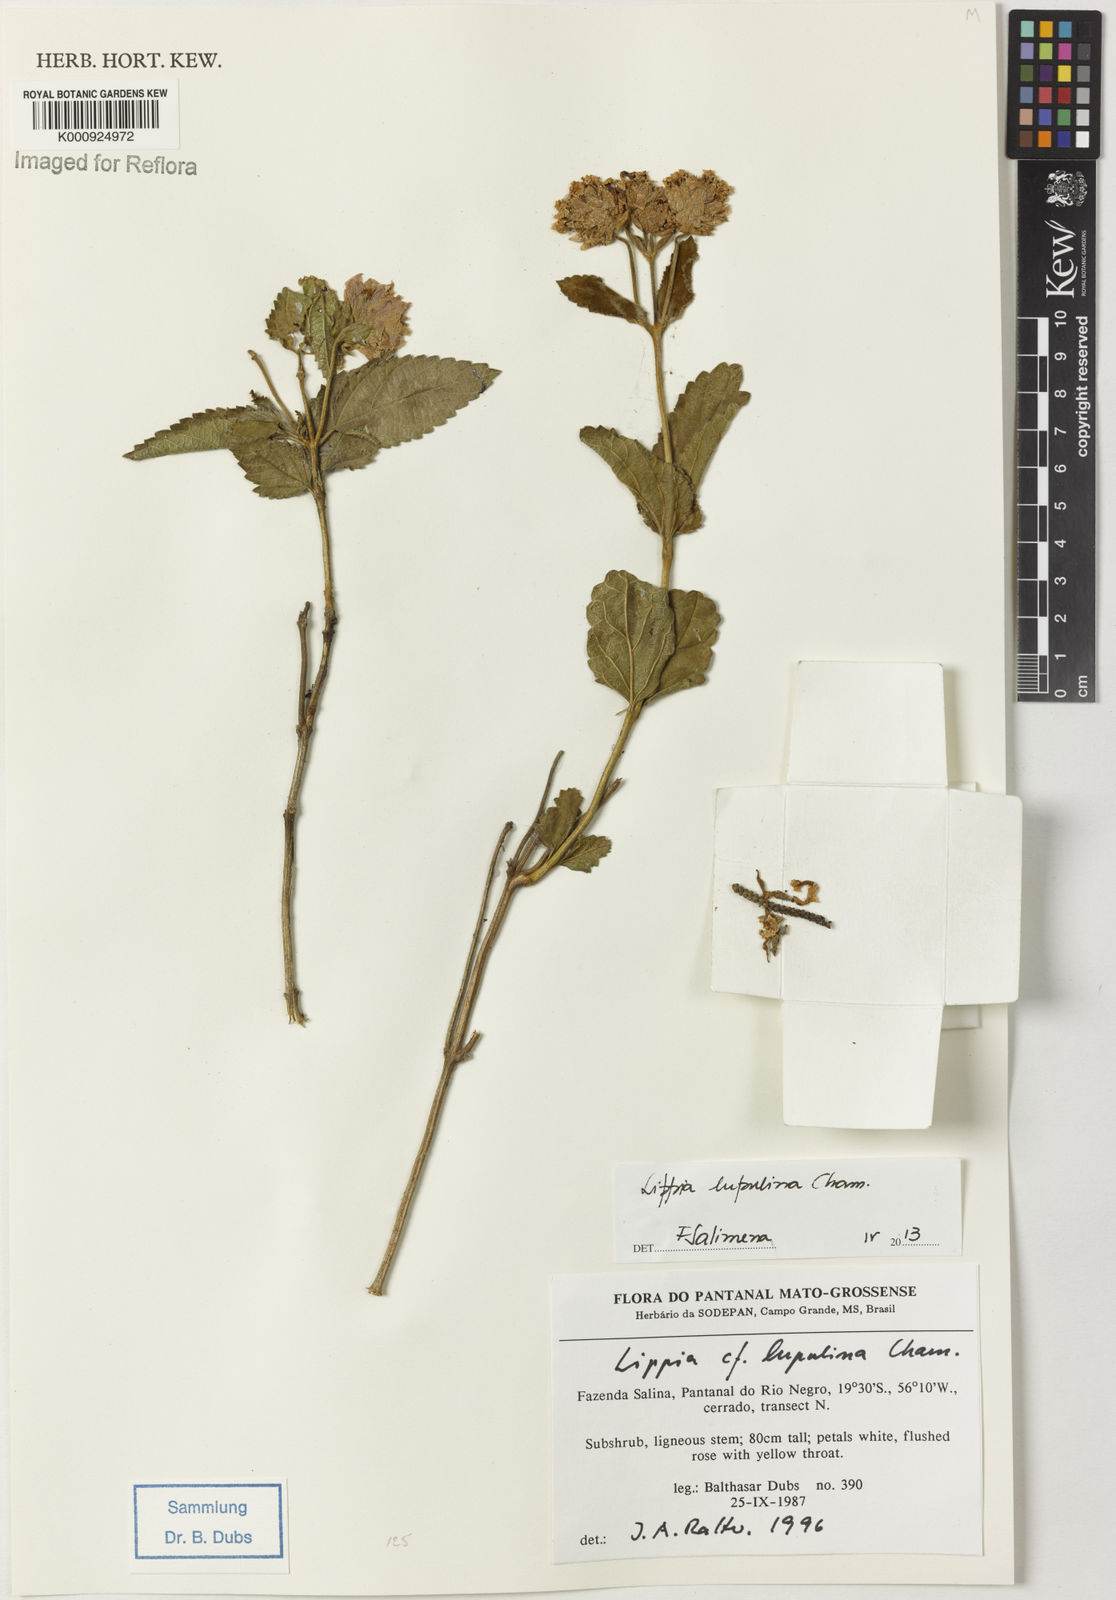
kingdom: Plantae
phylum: Tracheophyta
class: Magnoliopsida
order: Lamiales
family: Verbenaceae
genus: Lippia
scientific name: Lippia lupulina
